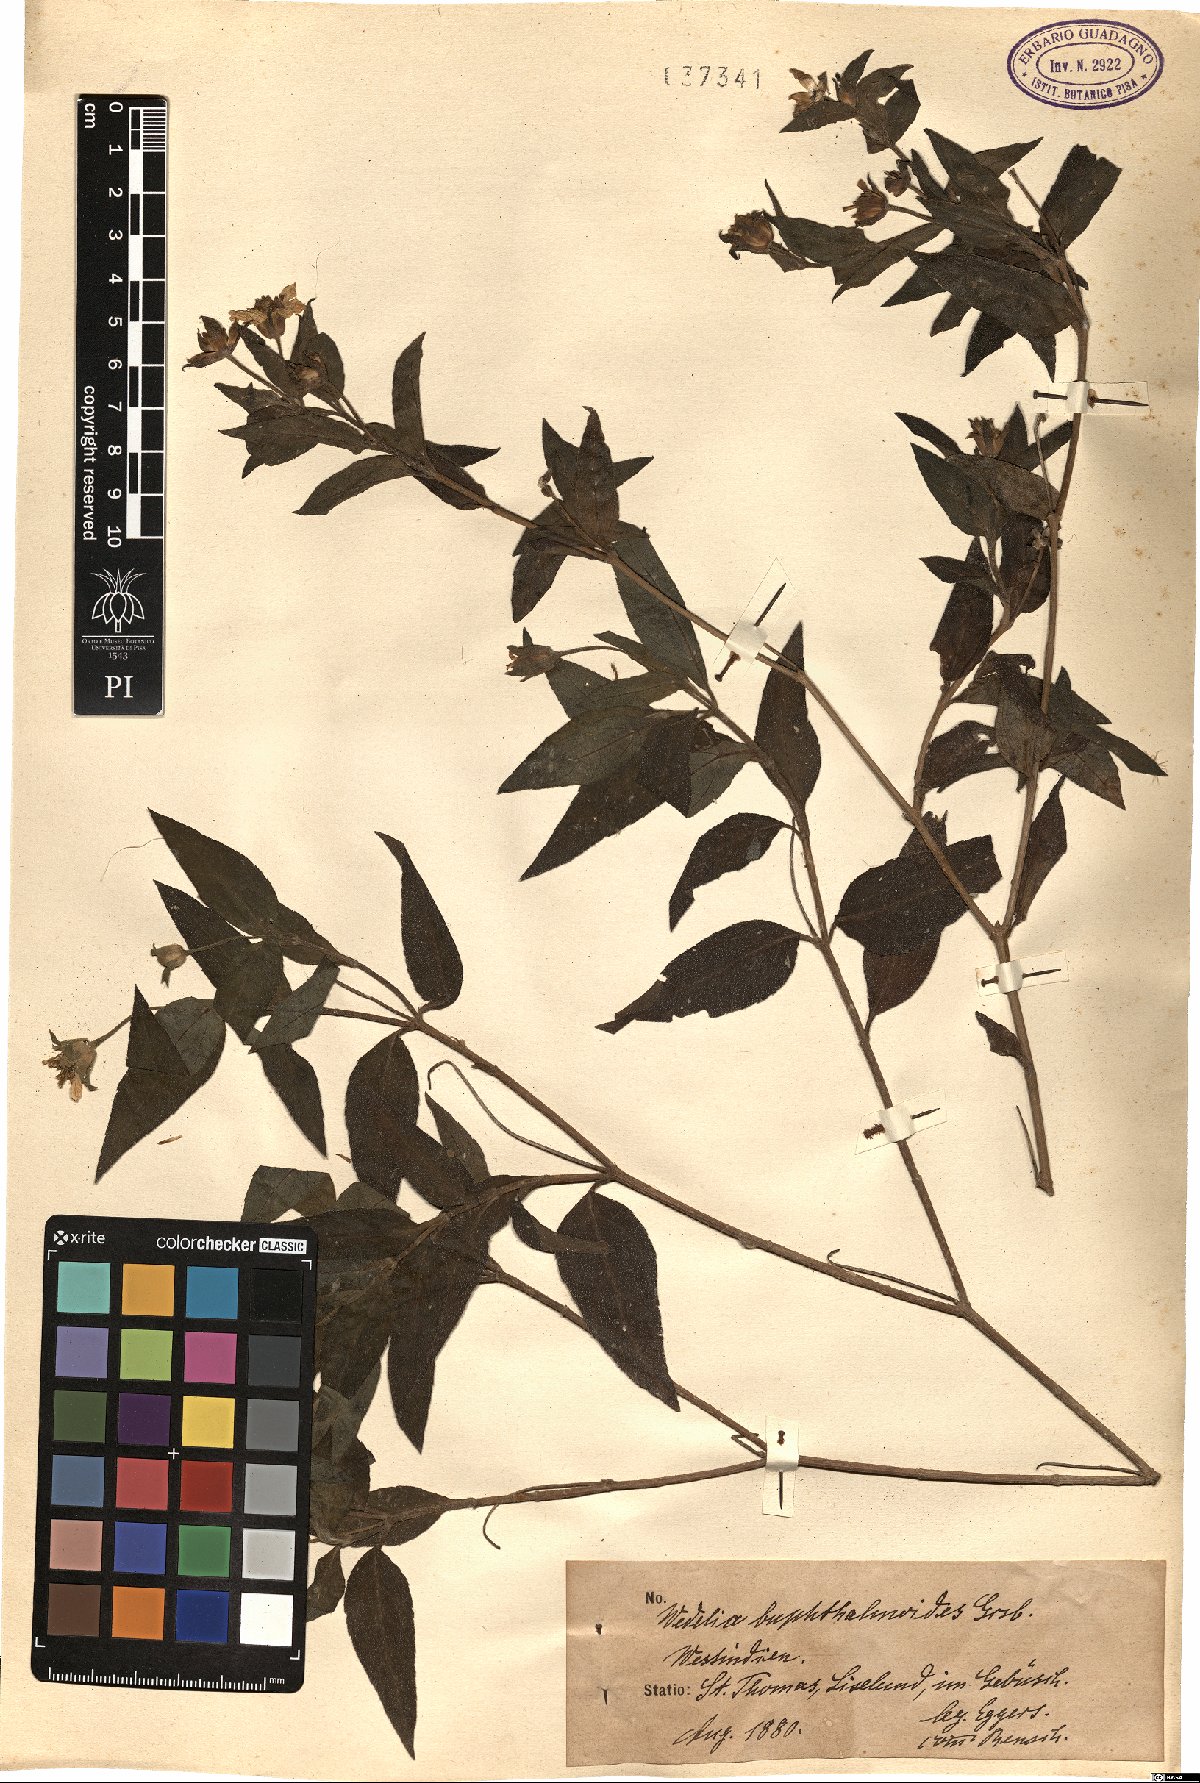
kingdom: Plantae
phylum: Tracheophyta
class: Magnoliopsida
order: Asterales
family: Asteraceae
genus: Wedelia
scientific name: Wedelia calycina
